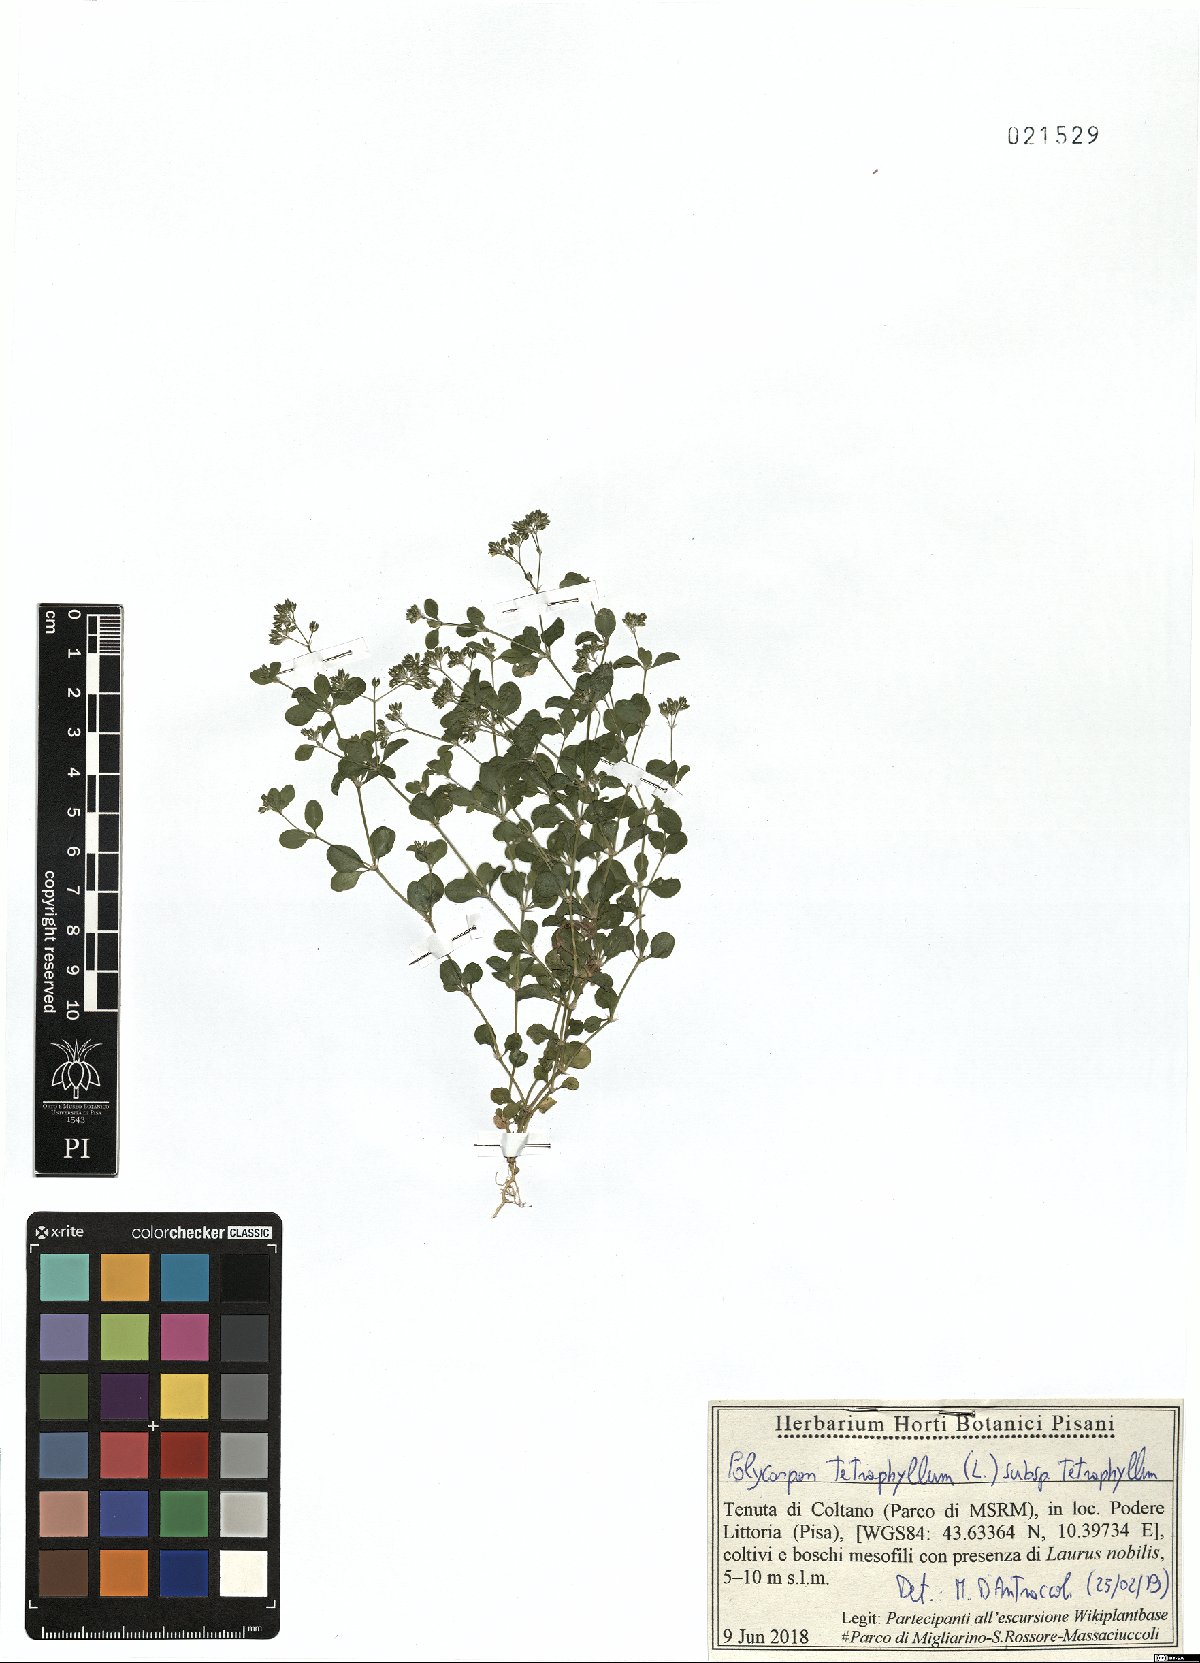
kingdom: Plantae
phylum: Tracheophyta
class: Magnoliopsida
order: Caryophyllales
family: Caryophyllaceae
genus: Polycarpon
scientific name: Polycarpon tetraphyllum
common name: Four-leaved all-seed
